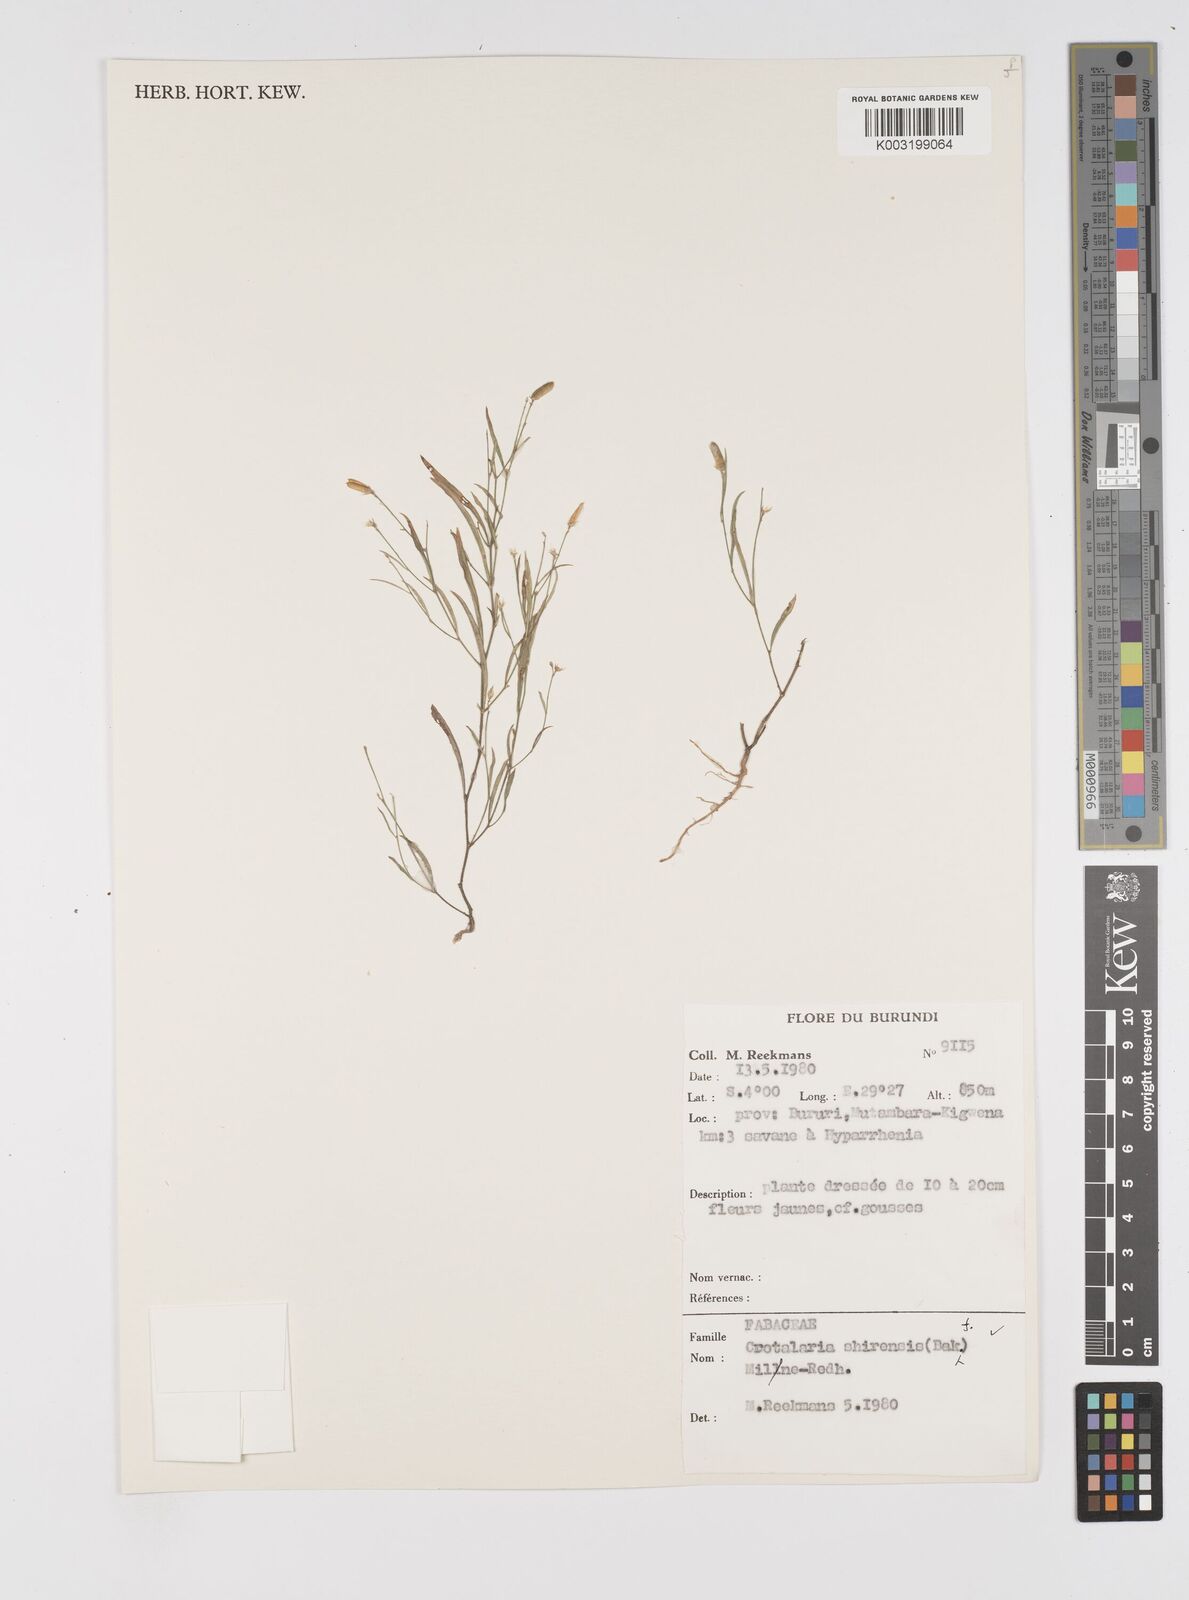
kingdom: Plantae
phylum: Tracheophyta
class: Magnoliopsida
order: Fabales
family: Fabaceae
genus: Crotalaria
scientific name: Crotalaria shirensis
